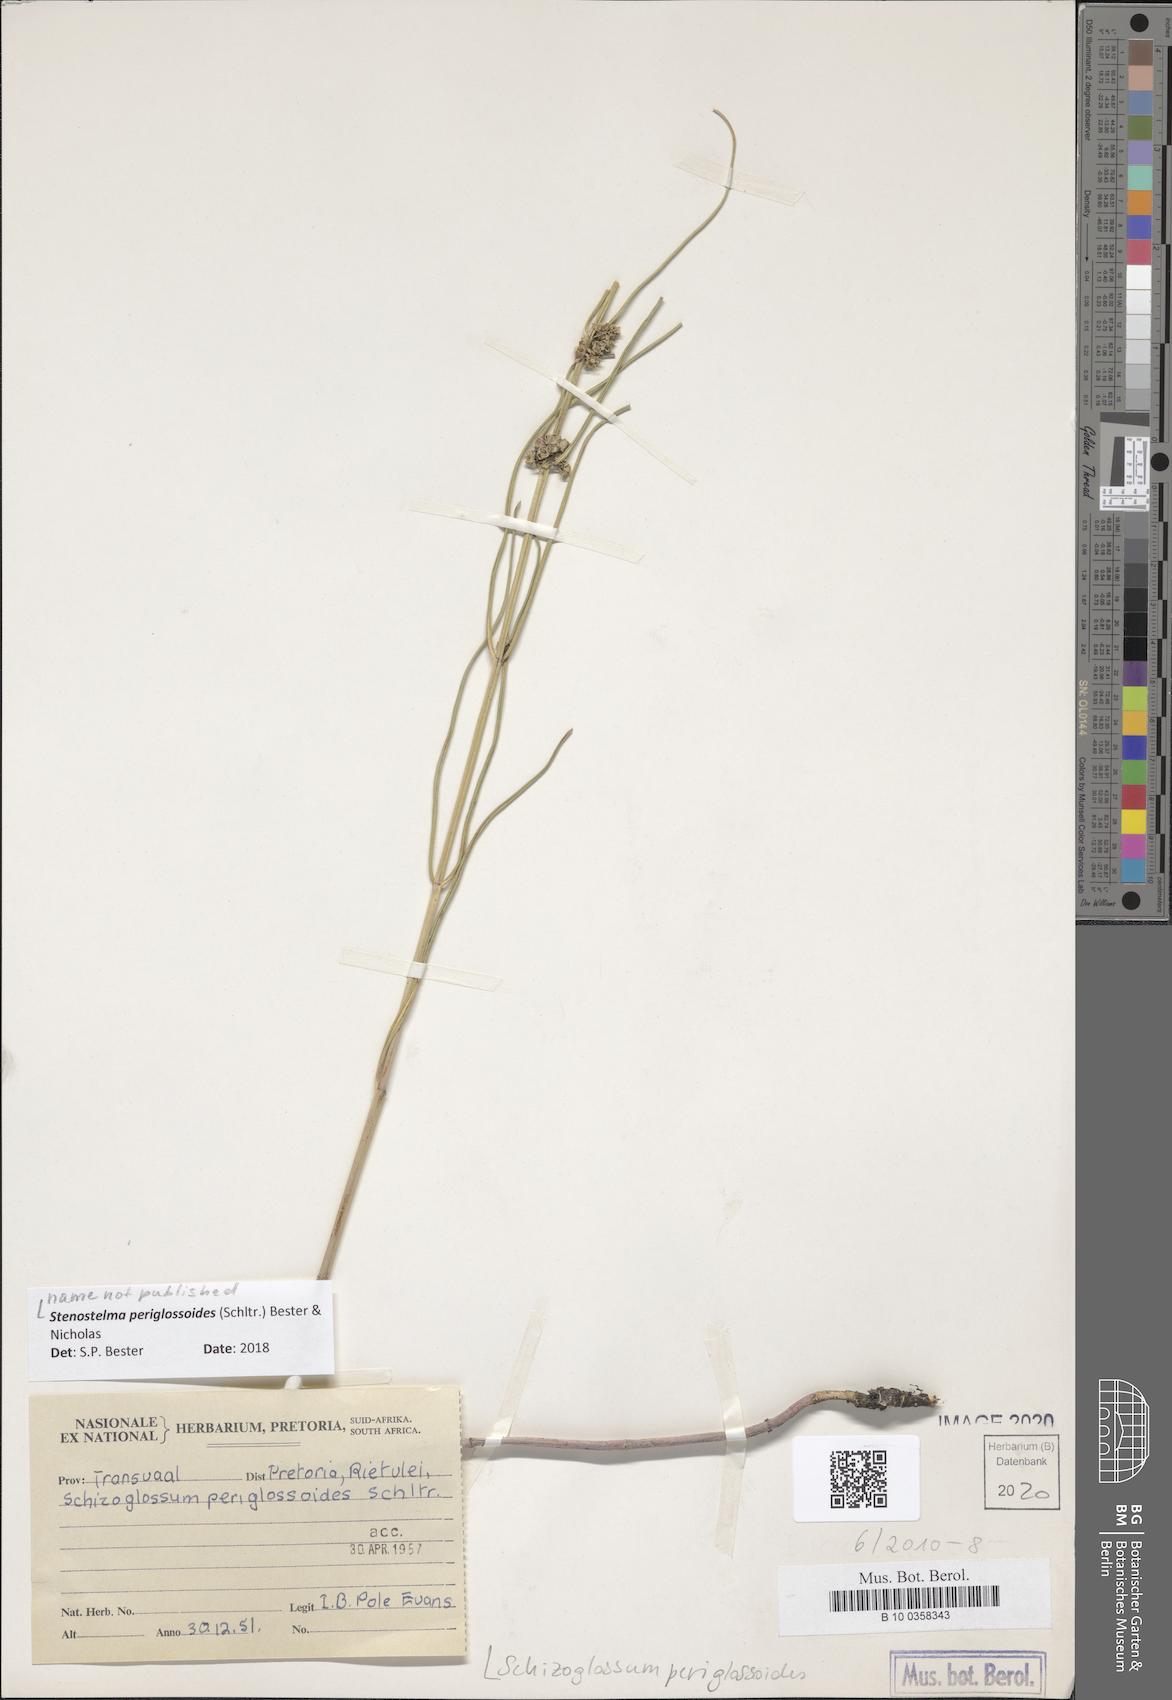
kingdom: Plantae
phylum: Tracheophyta
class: Magnoliopsida
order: Gentianales
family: Apocynaceae
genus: Stenostelma
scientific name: Stenostelma periglossoides
